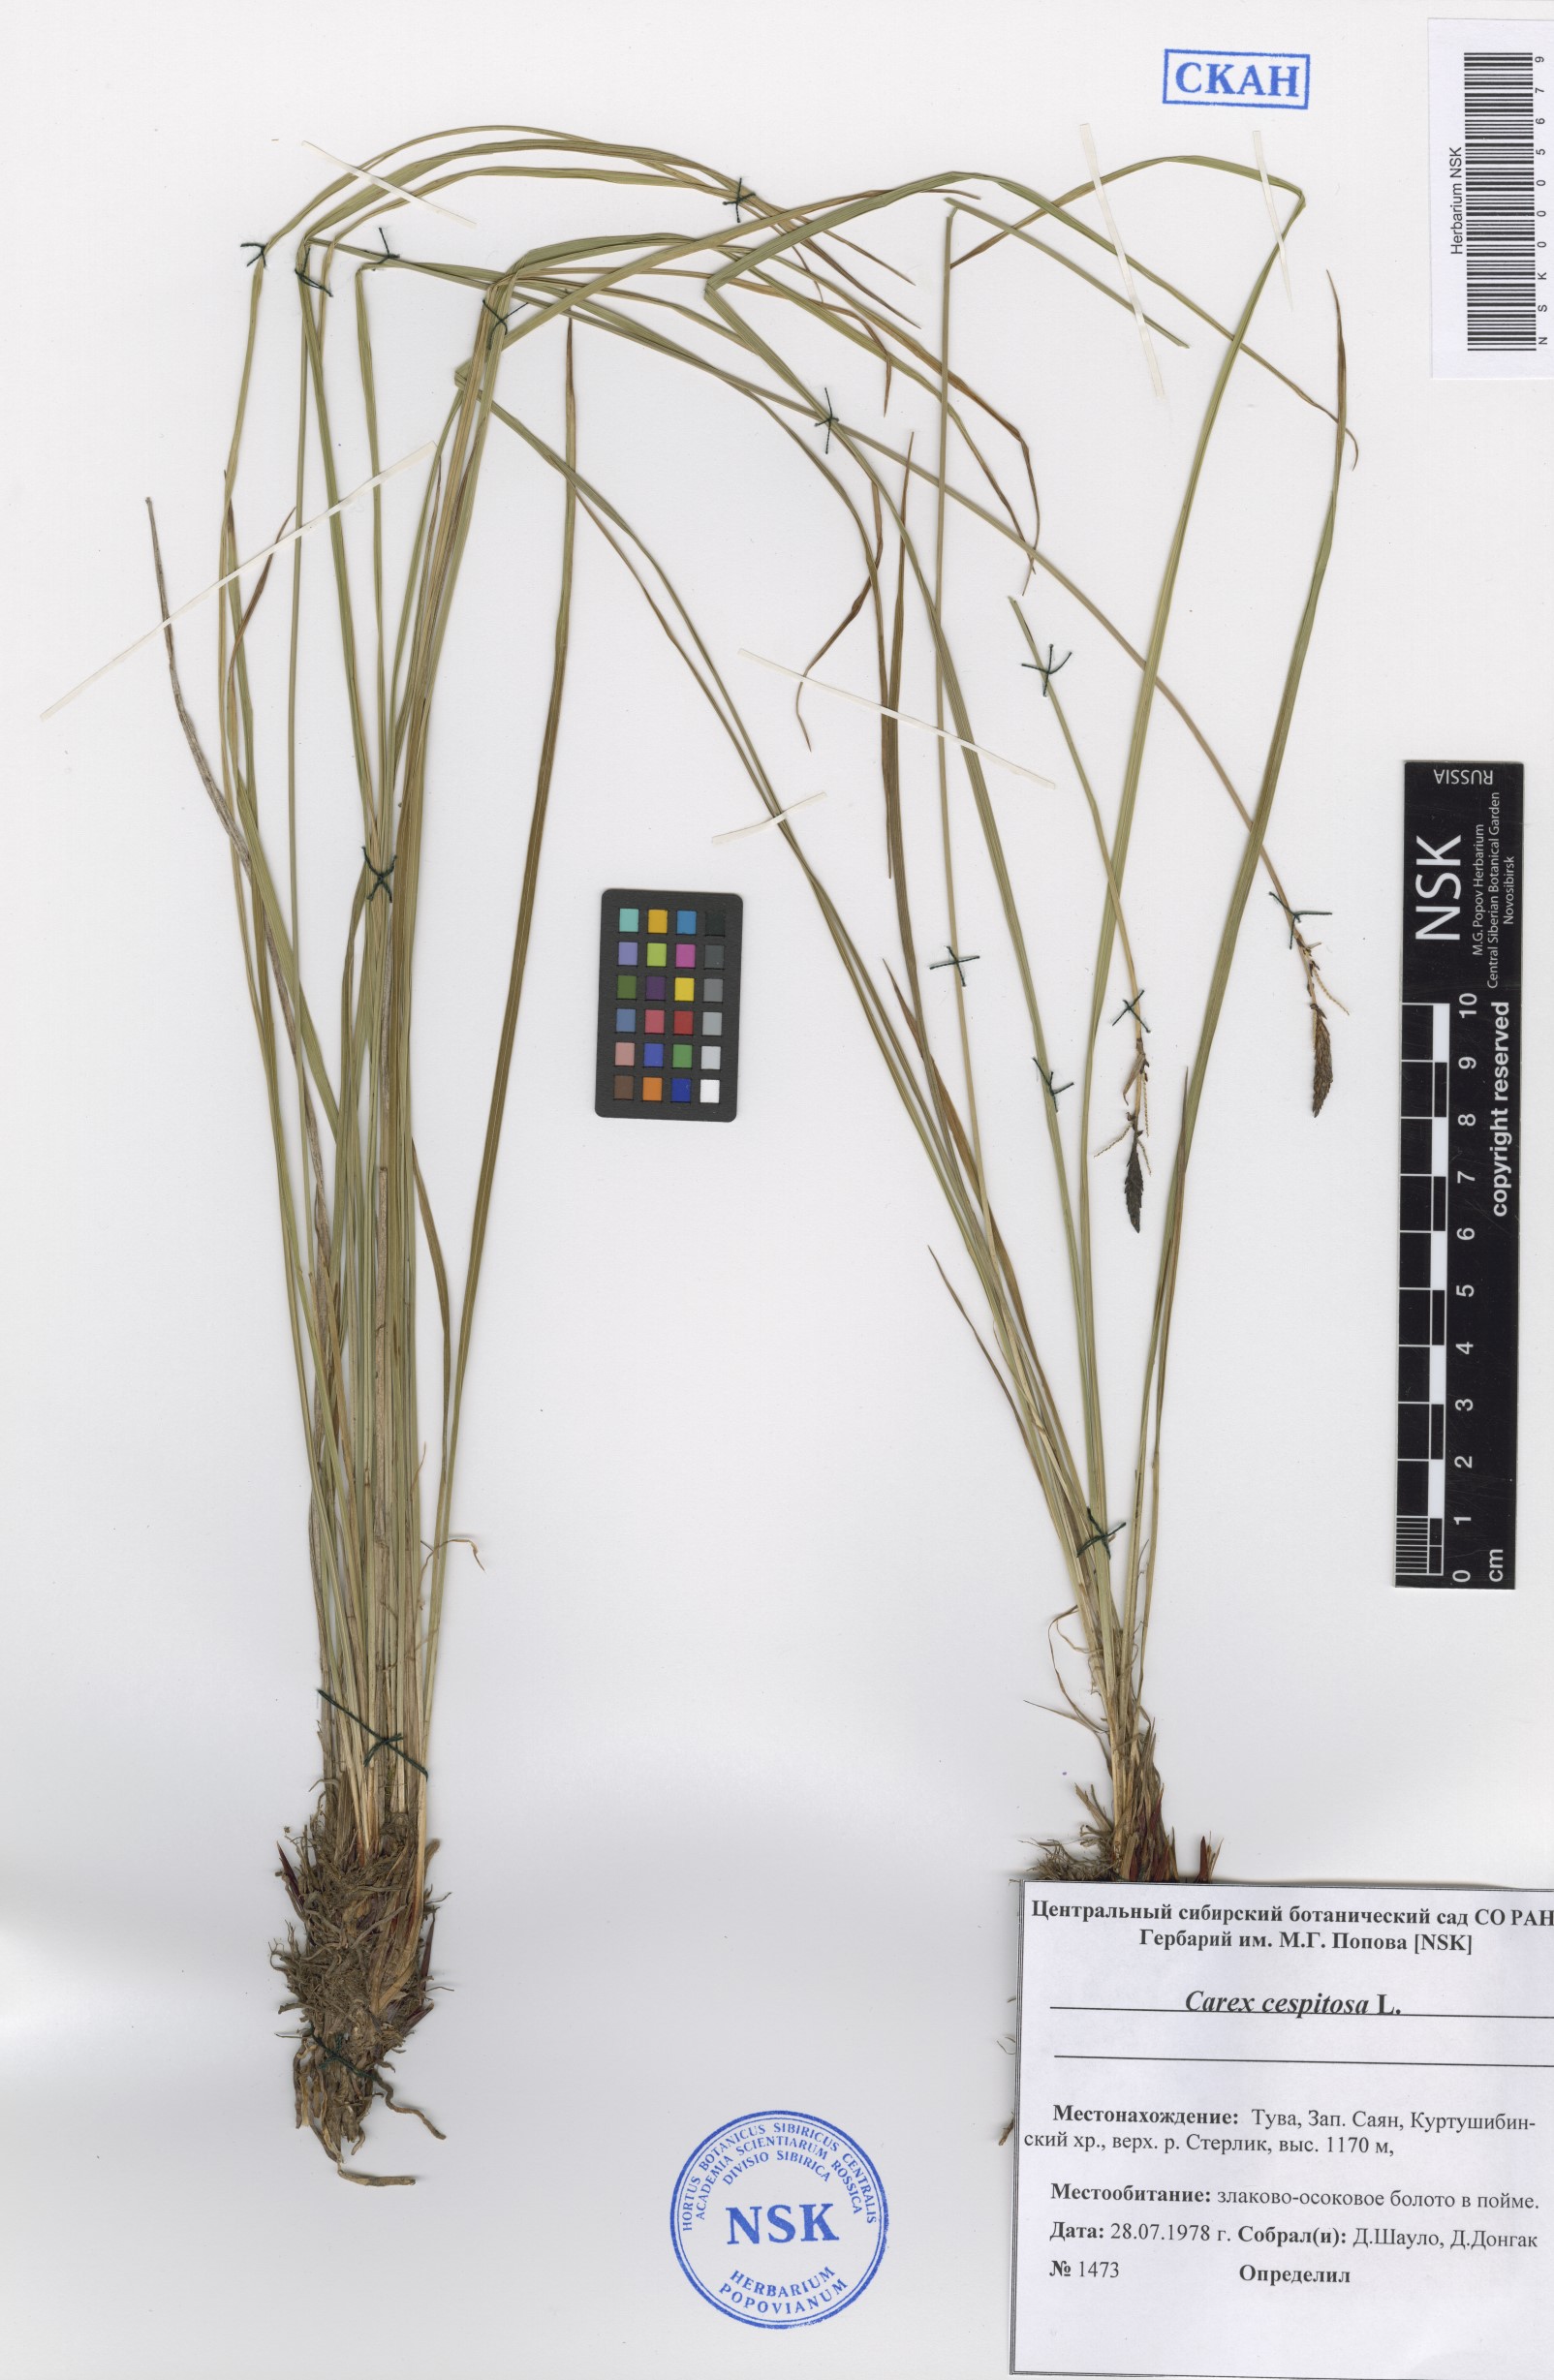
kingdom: Plantae
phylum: Tracheophyta
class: Liliopsida
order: Poales
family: Cyperaceae
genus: Carex
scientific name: Carex cespitosa
